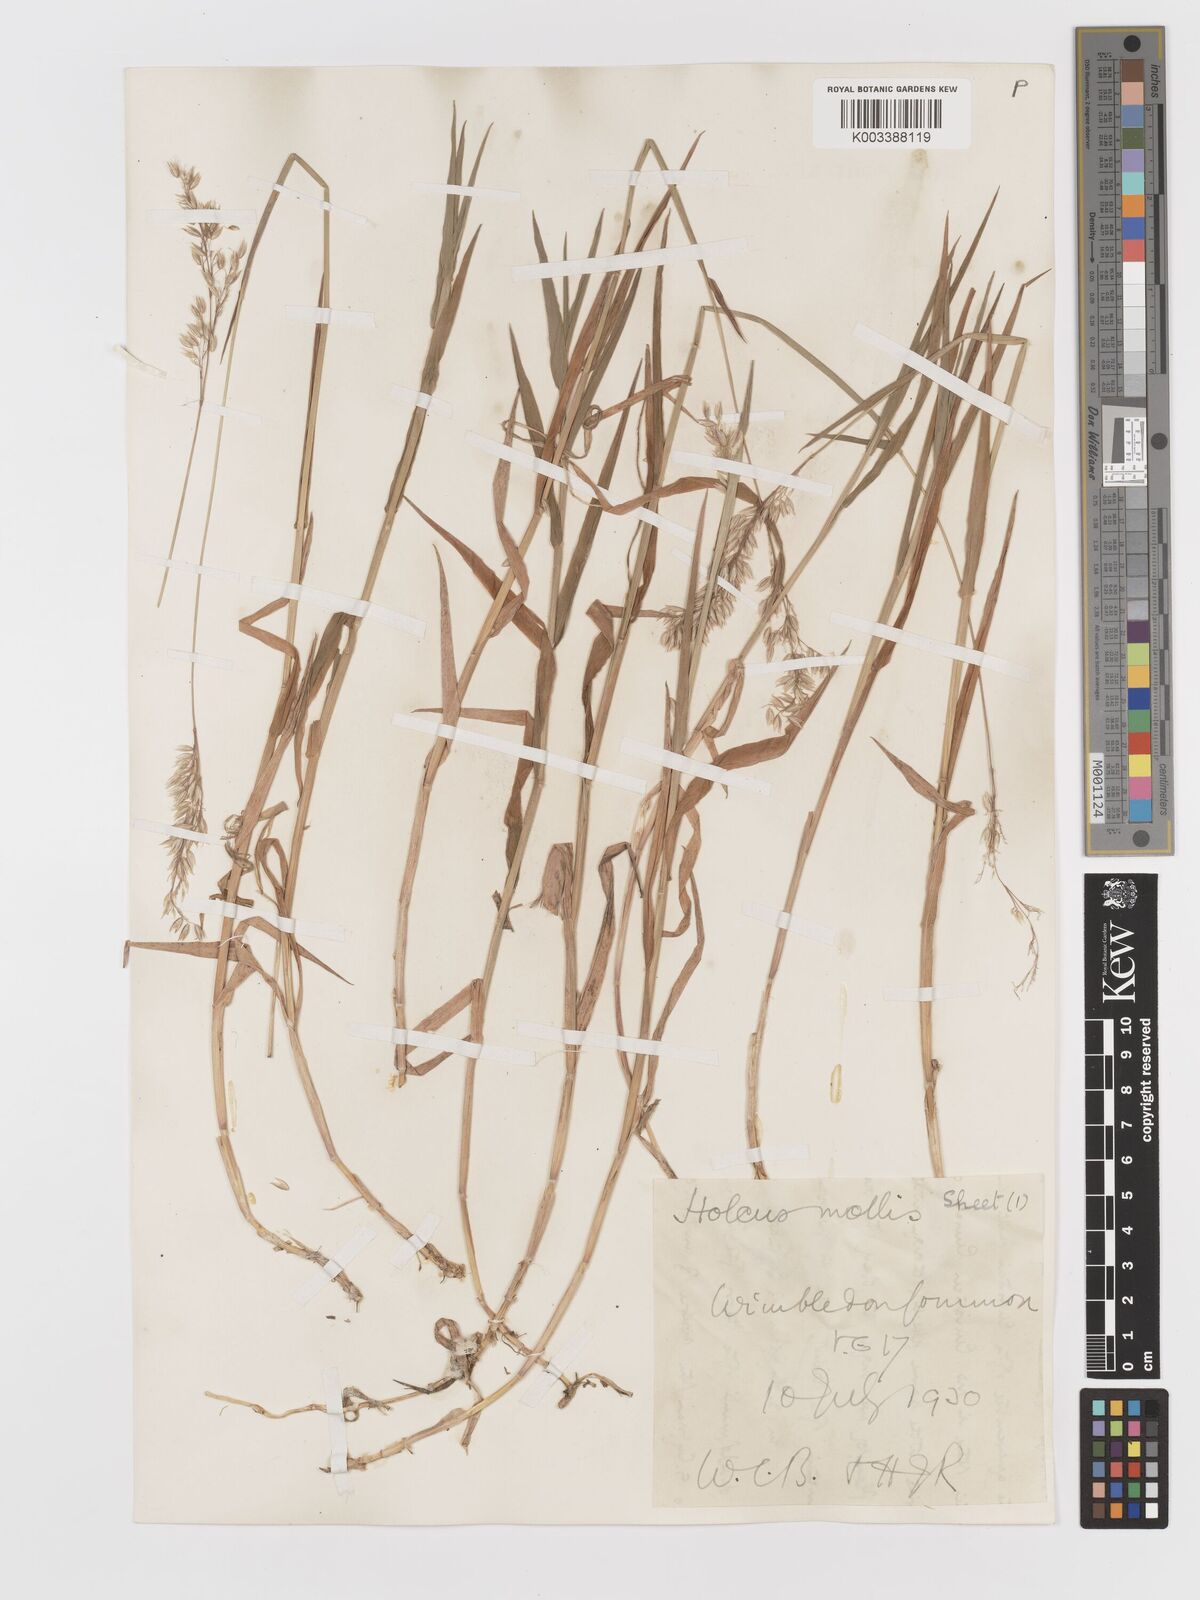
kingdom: Plantae
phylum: Tracheophyta
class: Liliopsida
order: Poales
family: Poaceae
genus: Holcus
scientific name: Holcus mollis
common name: Creeping velvetgrass
